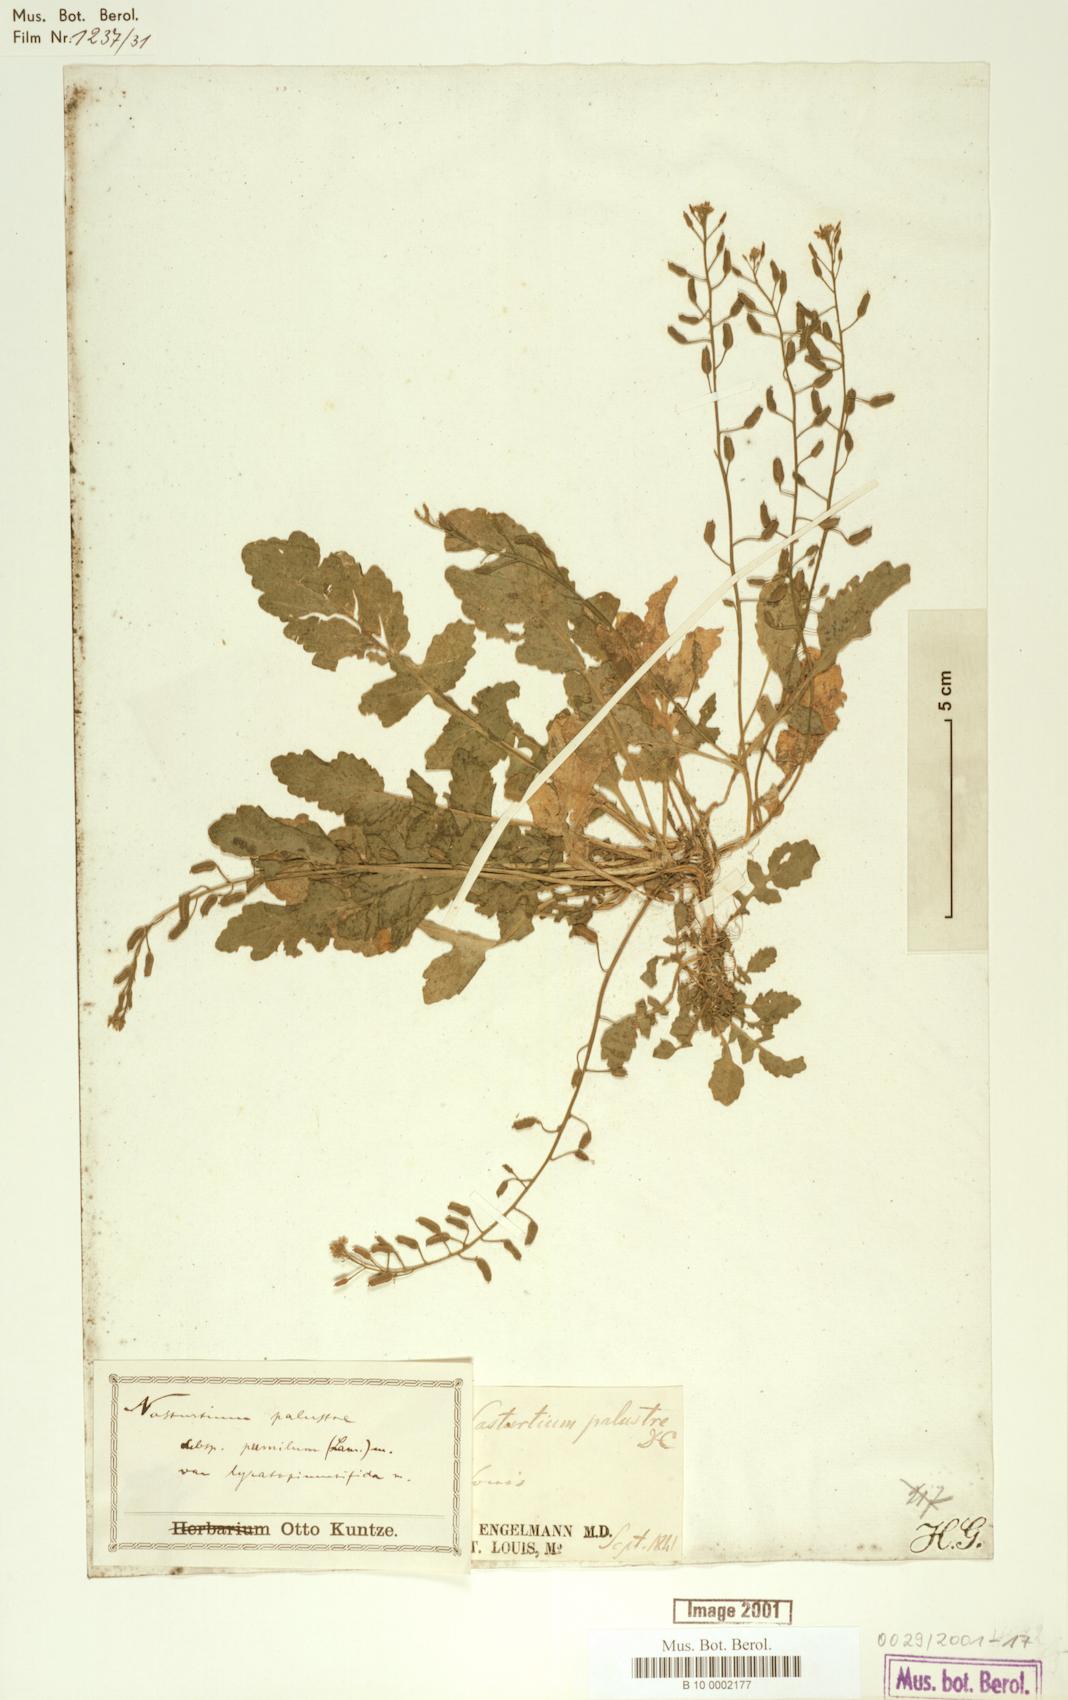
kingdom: Plantae
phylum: Tracheophyta
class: Magnoliopsida
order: Brassicales
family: Brassicaceae
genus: Rorippa
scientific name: Rorippa palustris
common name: Marsh yellow-cress
